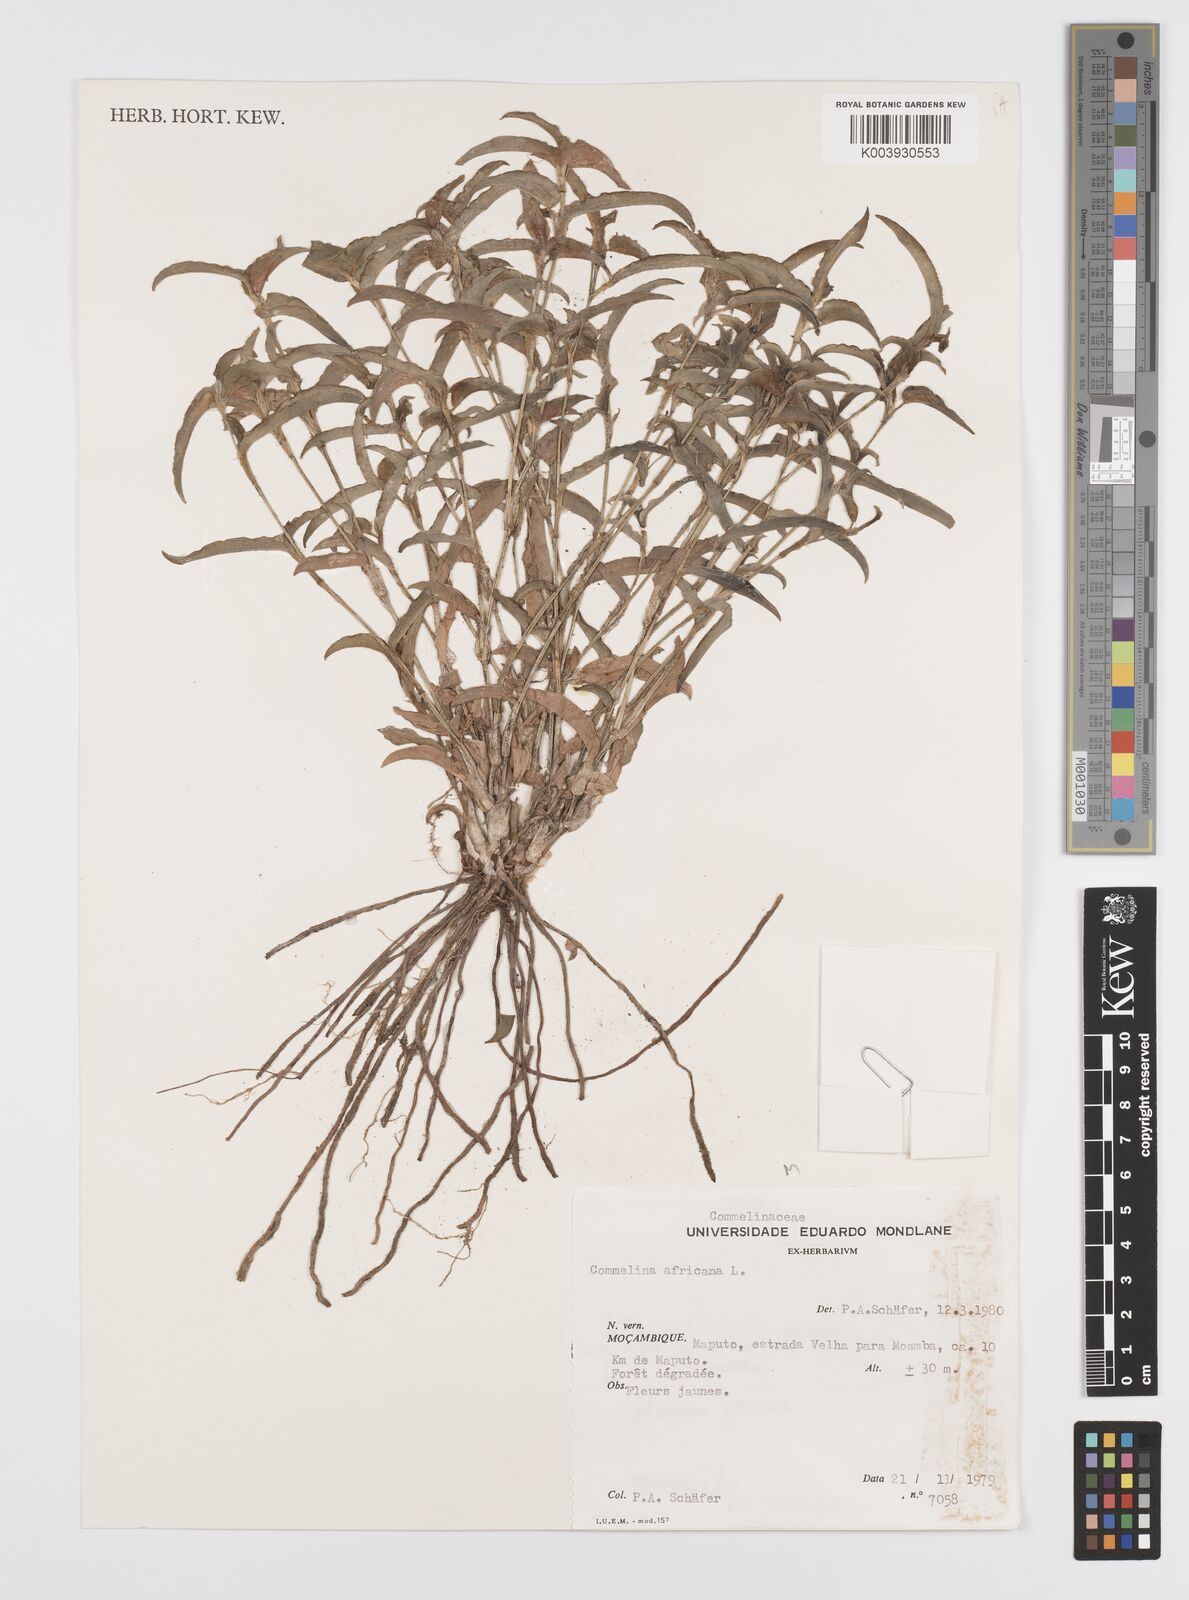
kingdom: Plantae
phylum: Tracheophyta
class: Liliopsida
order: Commelinales
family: Commelinaceae
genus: Commelina
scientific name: Commelina africana
